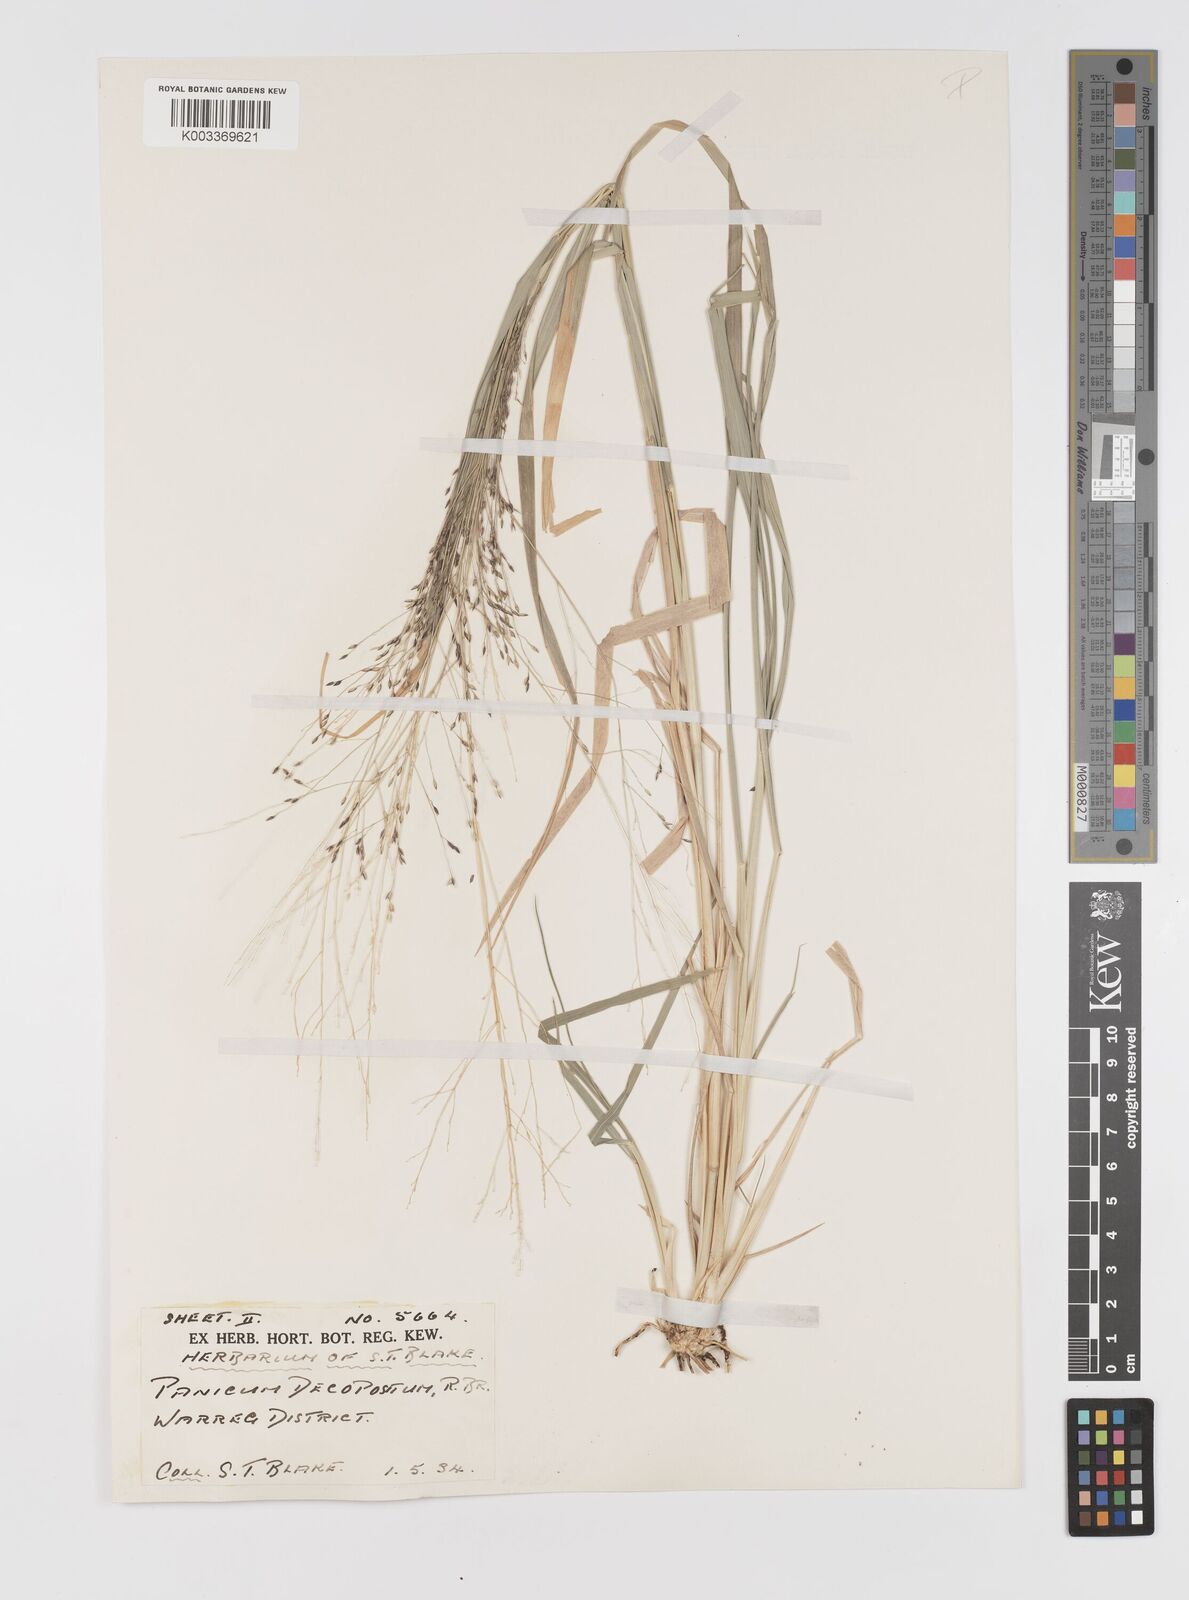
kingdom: Plantae
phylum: Tracheophyta
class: Liliopsida
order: Poales
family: Poaceae
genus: Panicum
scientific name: Panicum decompositum
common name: Australian millet
